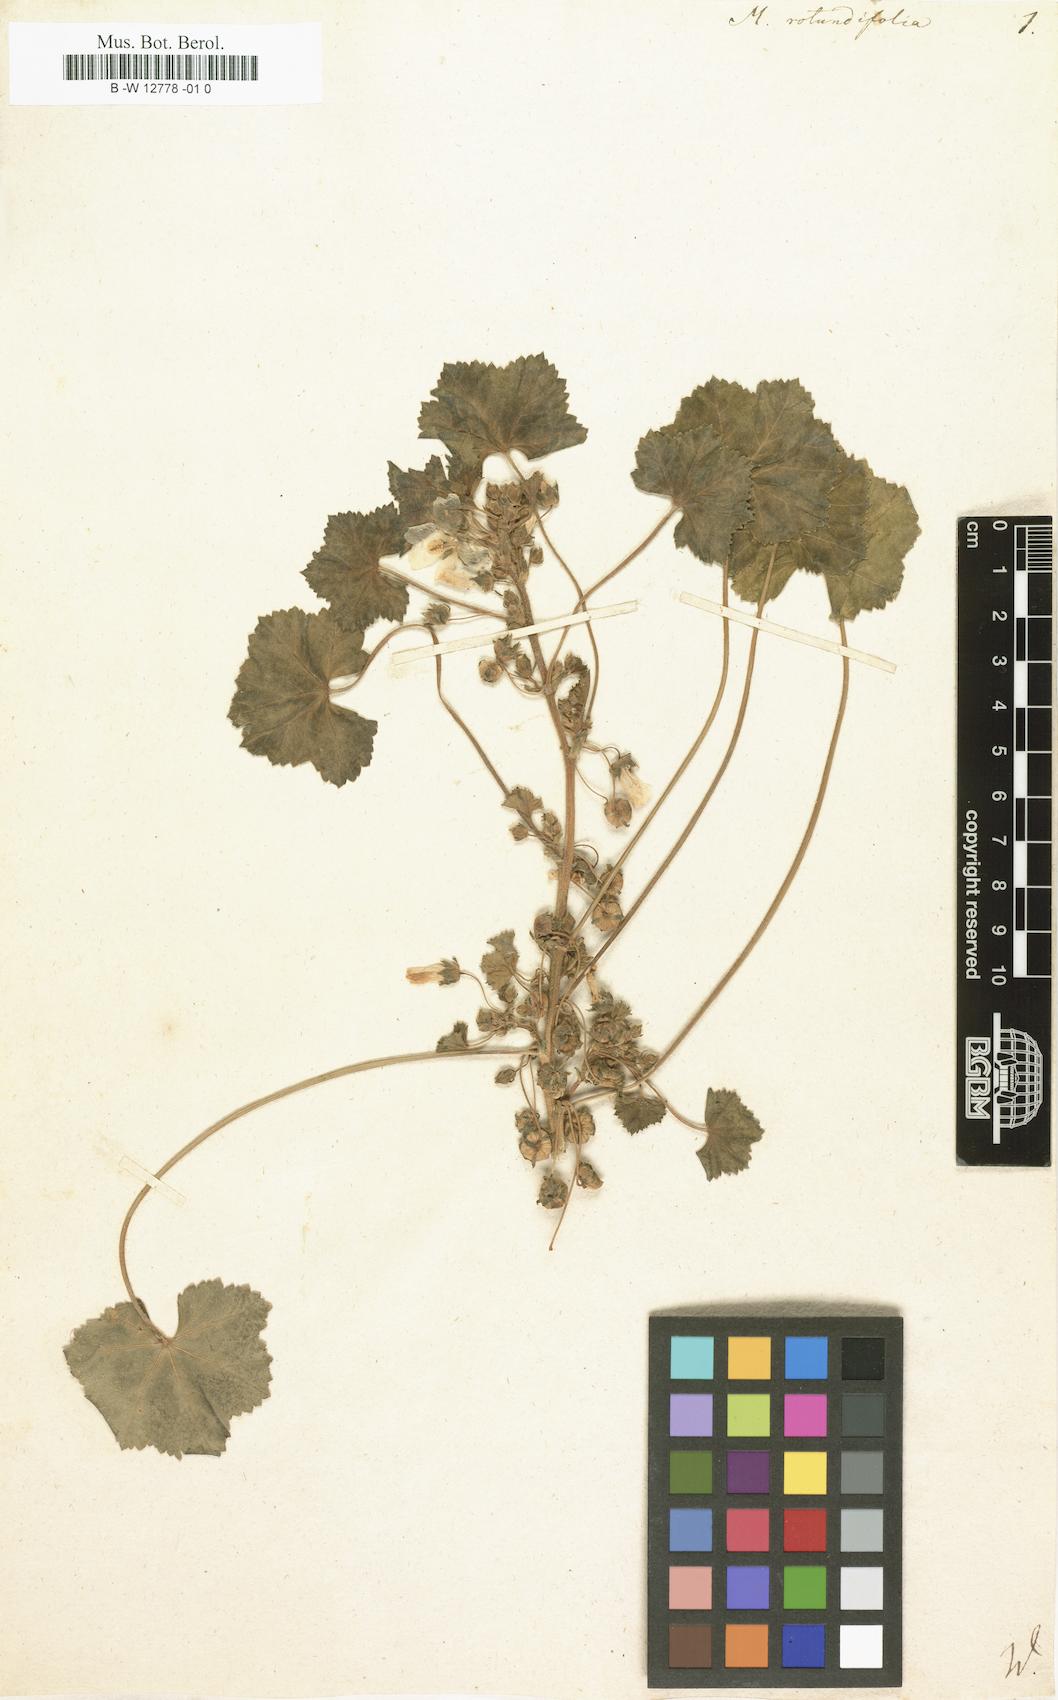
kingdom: Plantae
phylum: Tracheophyta
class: Magnoliopsida
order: Malvales
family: Malvaceae
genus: Malva
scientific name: Malva
